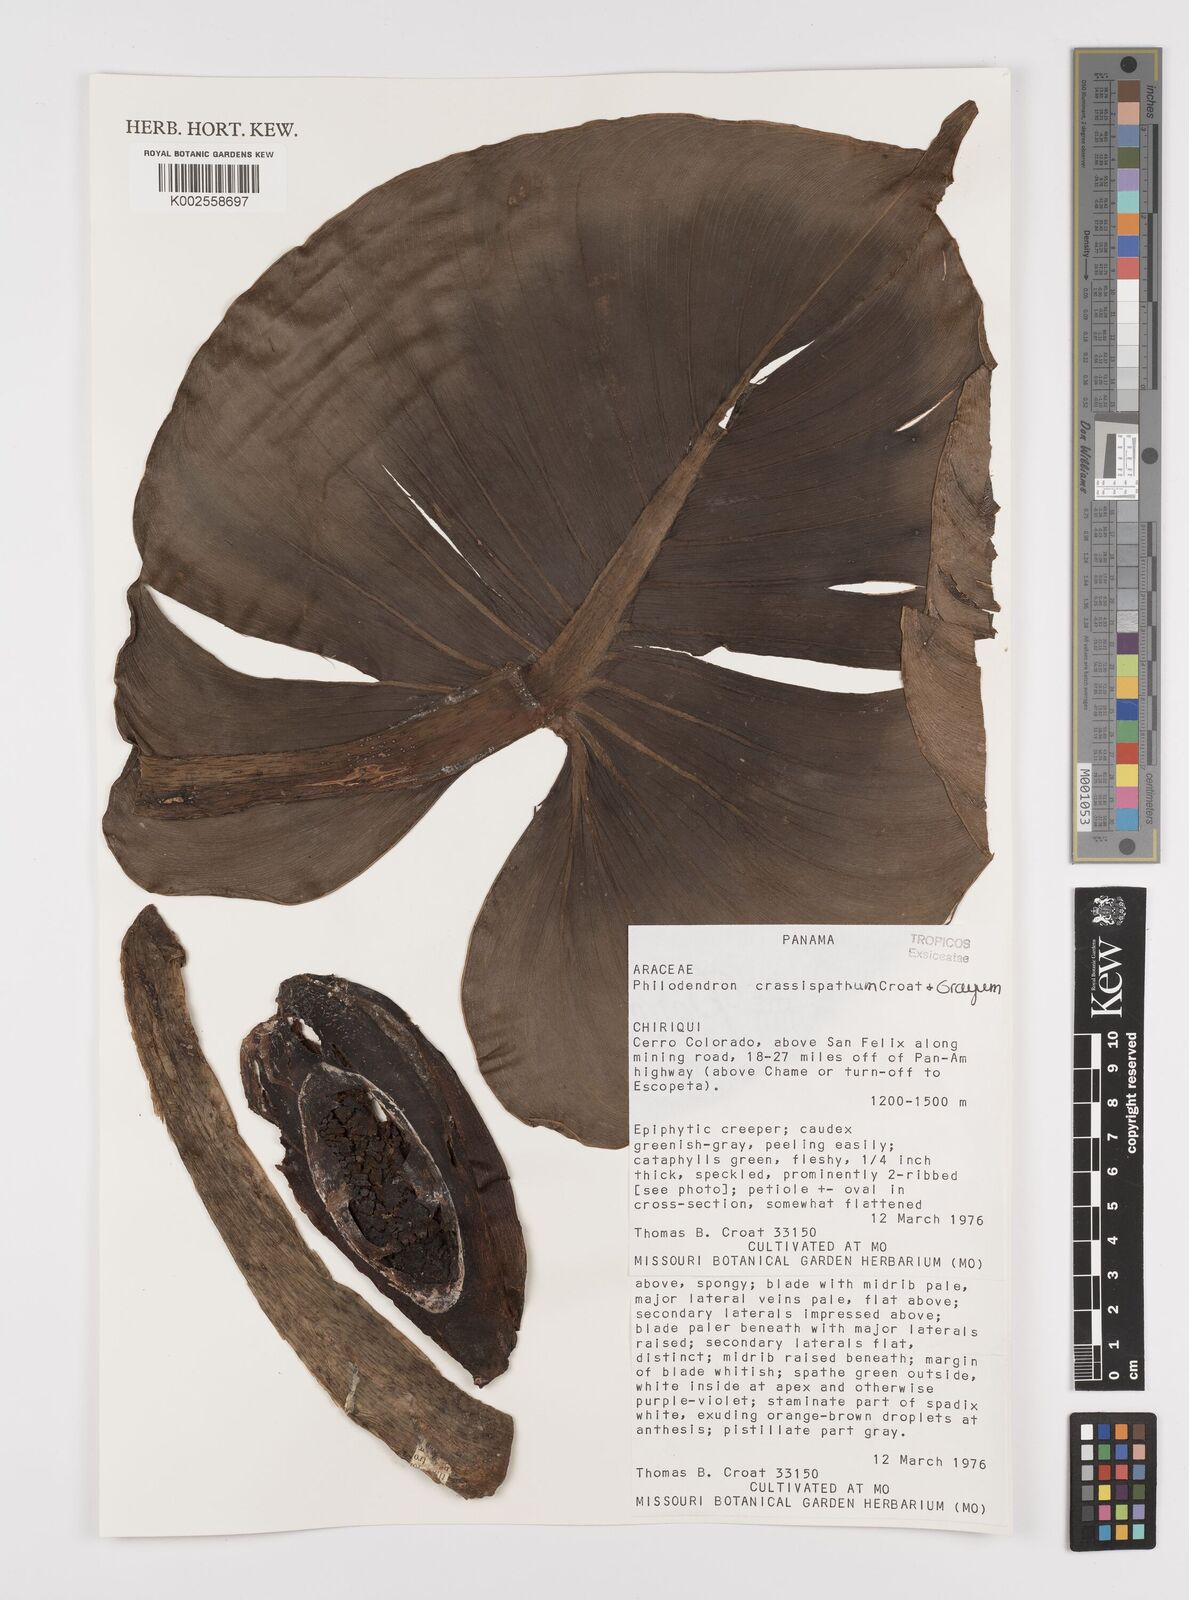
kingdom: Plantae
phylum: Tracheophyta
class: Liliopsida
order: Alismatales
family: Araceae
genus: Philodendron
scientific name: Philodendron crassispathum
